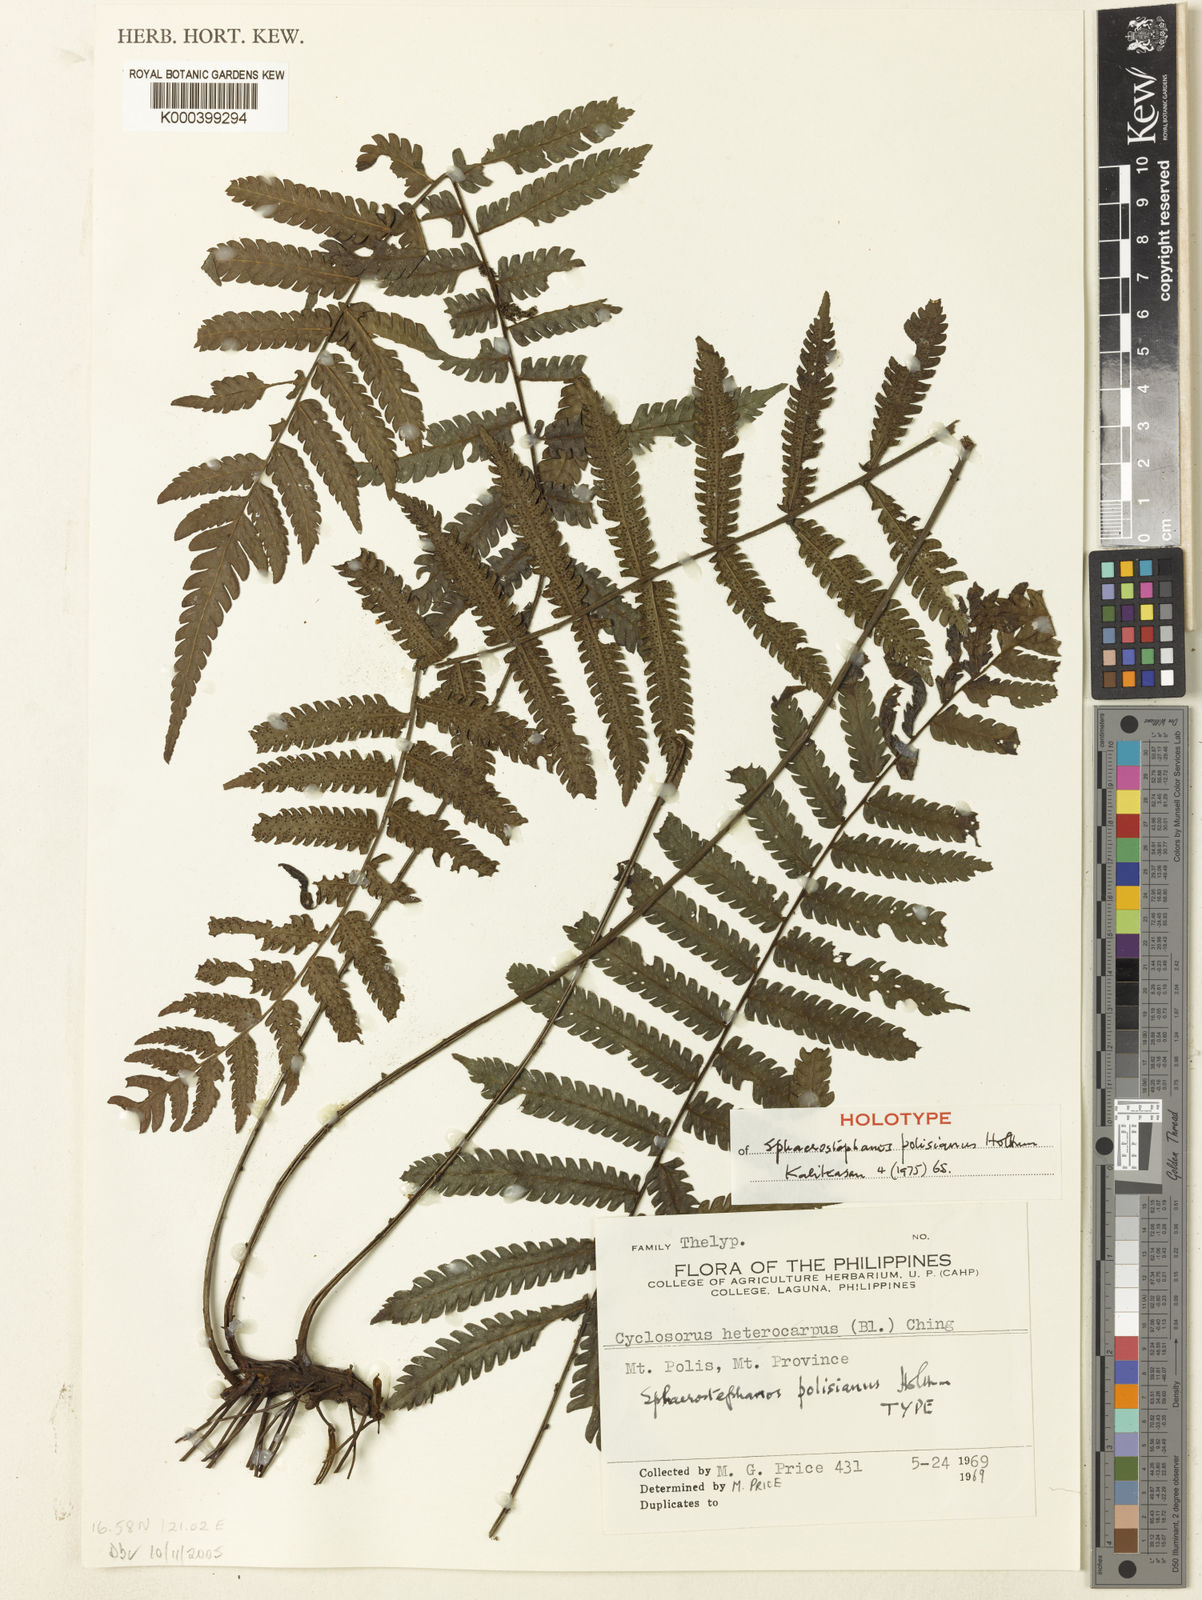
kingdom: Plantae
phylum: Tracheophyta
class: Polypodiopsida
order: Polypodiales
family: Thelypteridaceae
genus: Sphaerostephanos
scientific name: Sphaerostephanos polisianus
